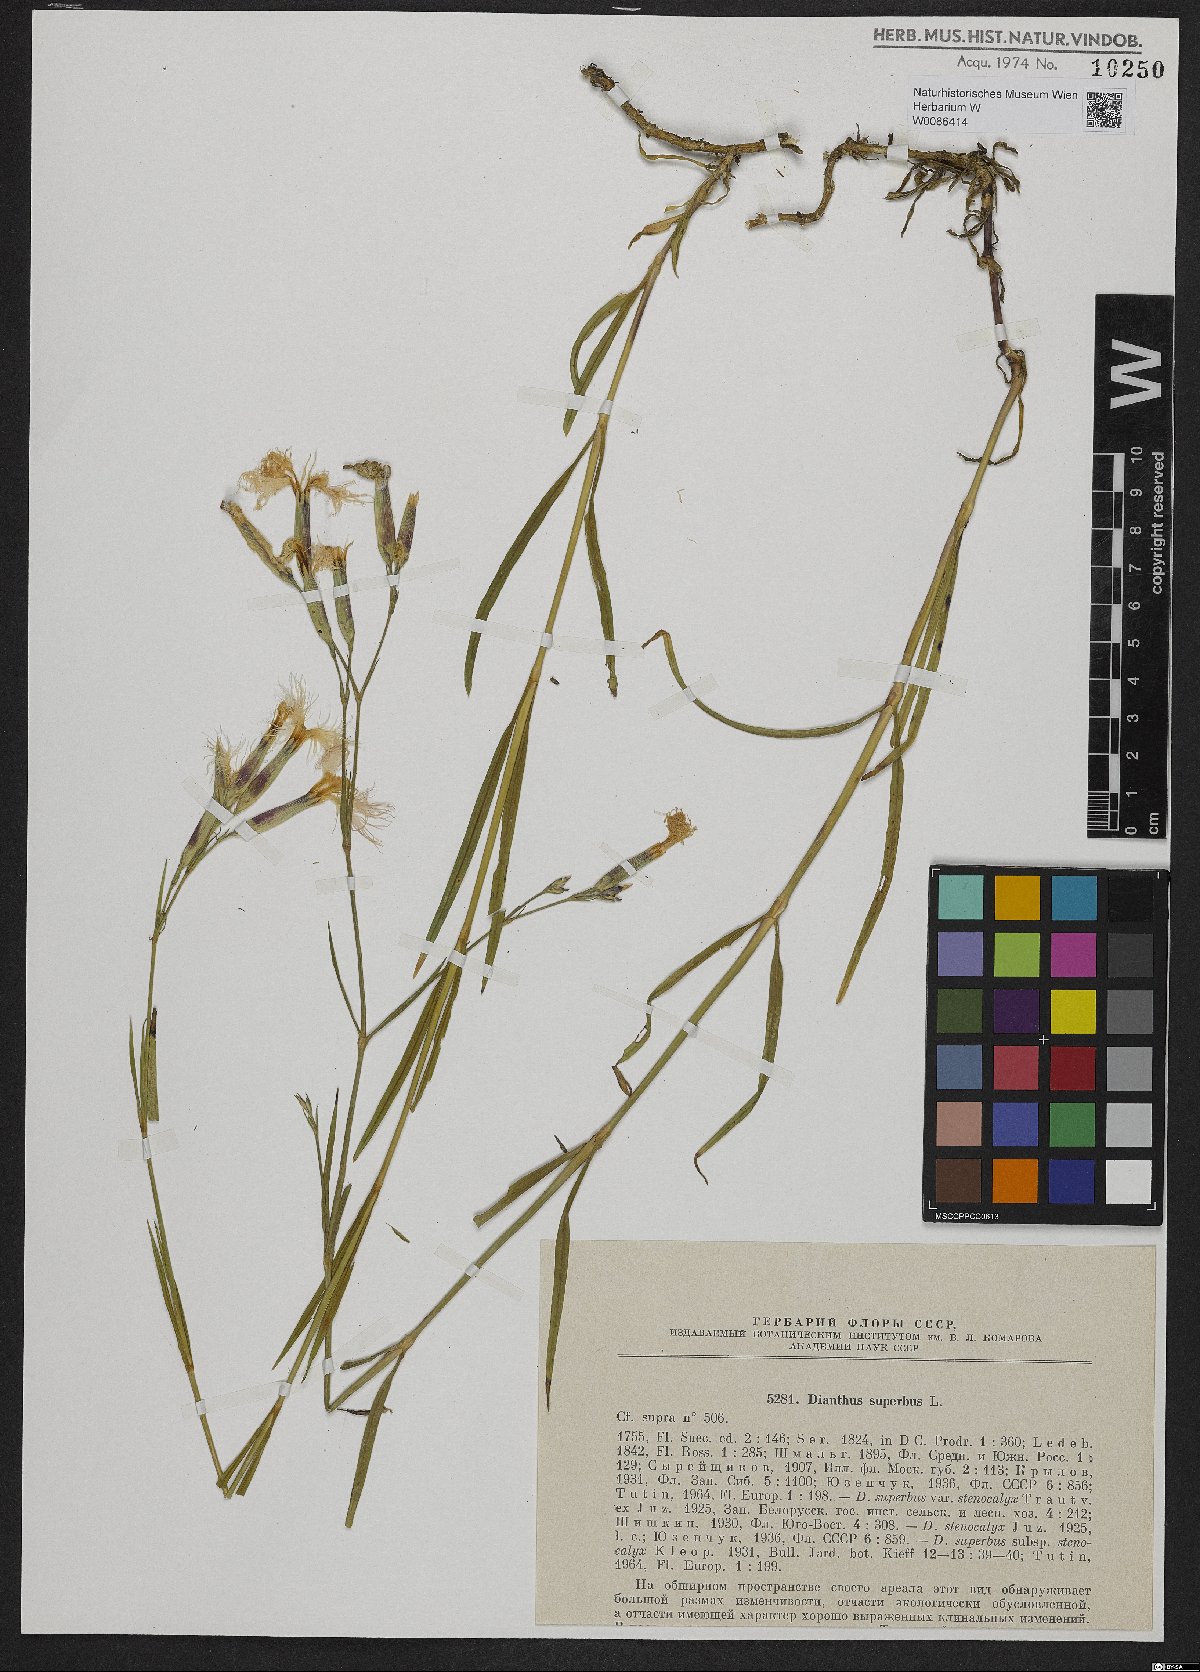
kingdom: Plantae
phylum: Tracheophyta
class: Magnoliopsida
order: Caryophyllales
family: Caryophyllaceae
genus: Dianthus
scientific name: Dianthus superbus
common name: Fringed pink
